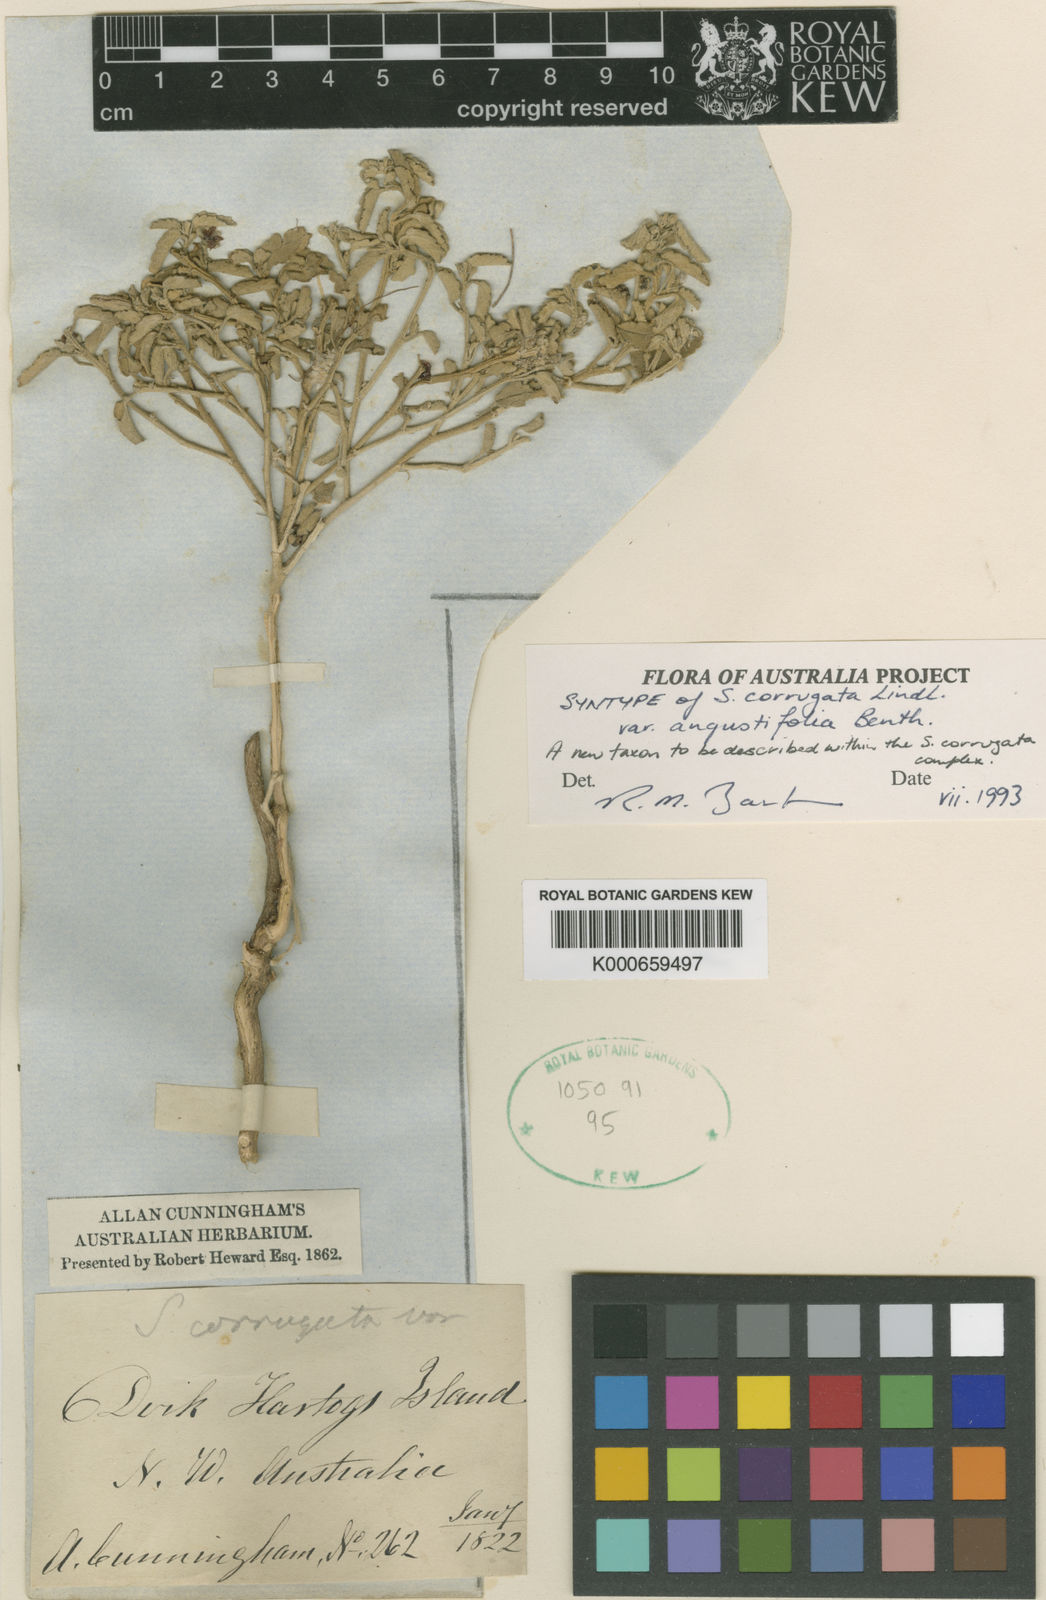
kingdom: Plantae
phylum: Tracheophyta
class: Magnoliopsida
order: Malvales
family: Malvaceae
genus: Sida
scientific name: Sida corrugata
